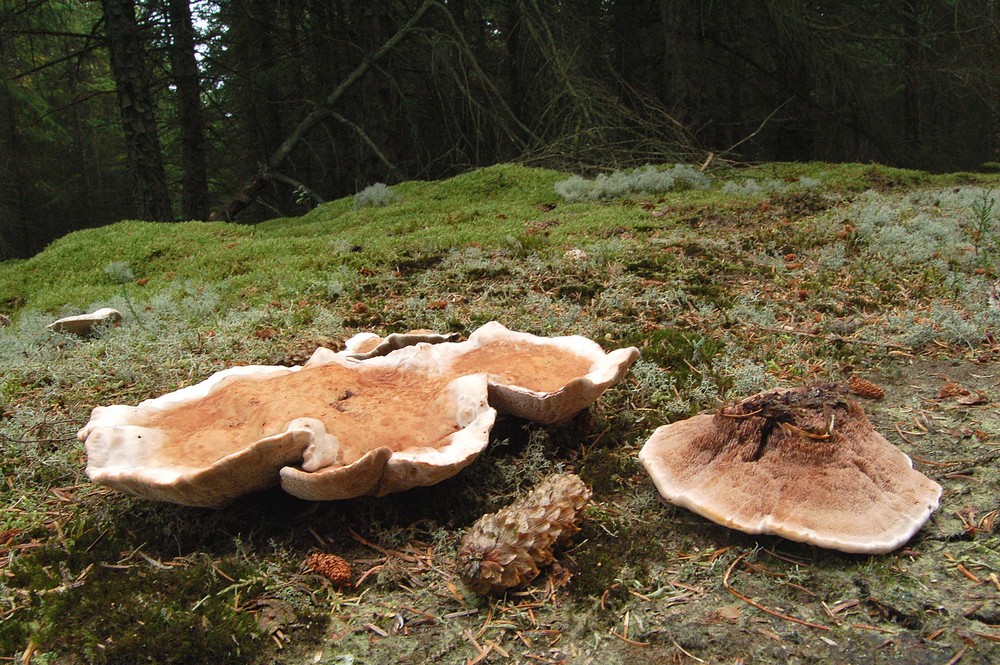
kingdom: Fungi
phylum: Basidiomycota
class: Agaricomycetes
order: Thelephorales
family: Bankeraceae
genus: Hydnellum
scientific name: Hydnellum peckii
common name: bitter korkpigsvamp
